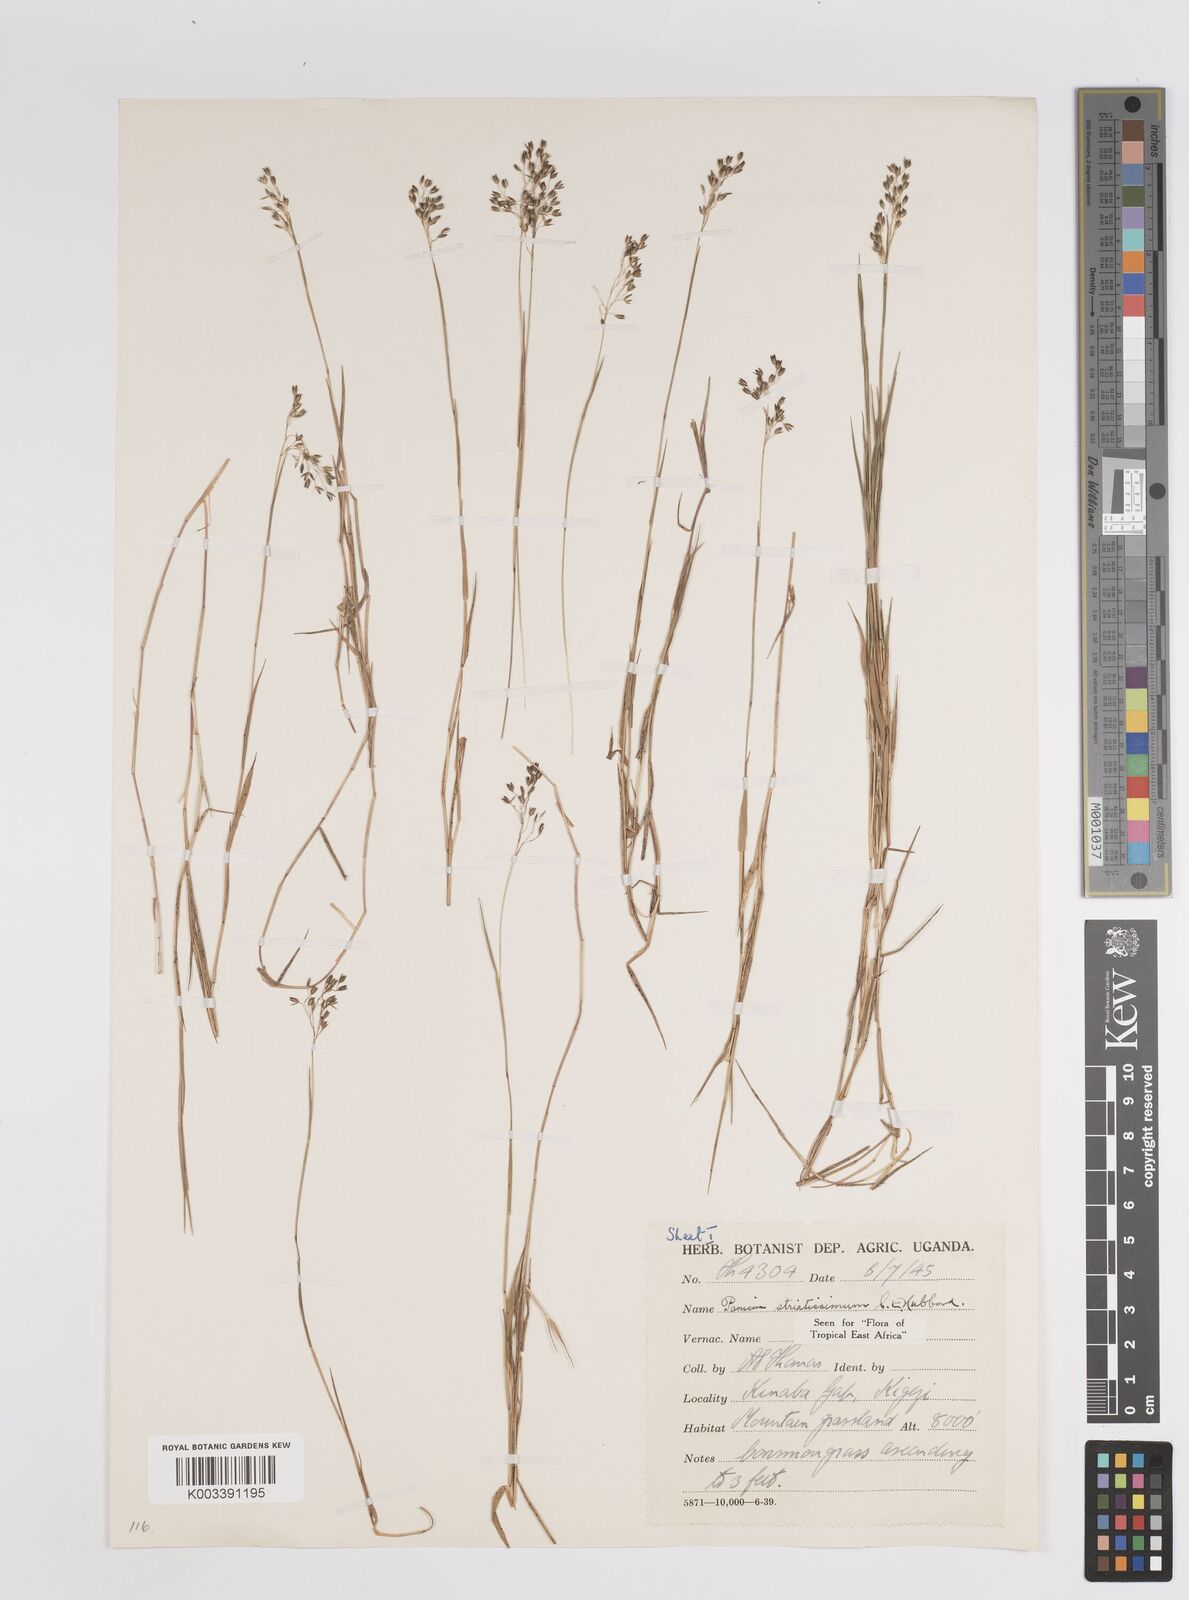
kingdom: Plantae
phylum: Tracheophyta
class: Liliopsida
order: Poales
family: Poaceae
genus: Panicum
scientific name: Panicum eickii
